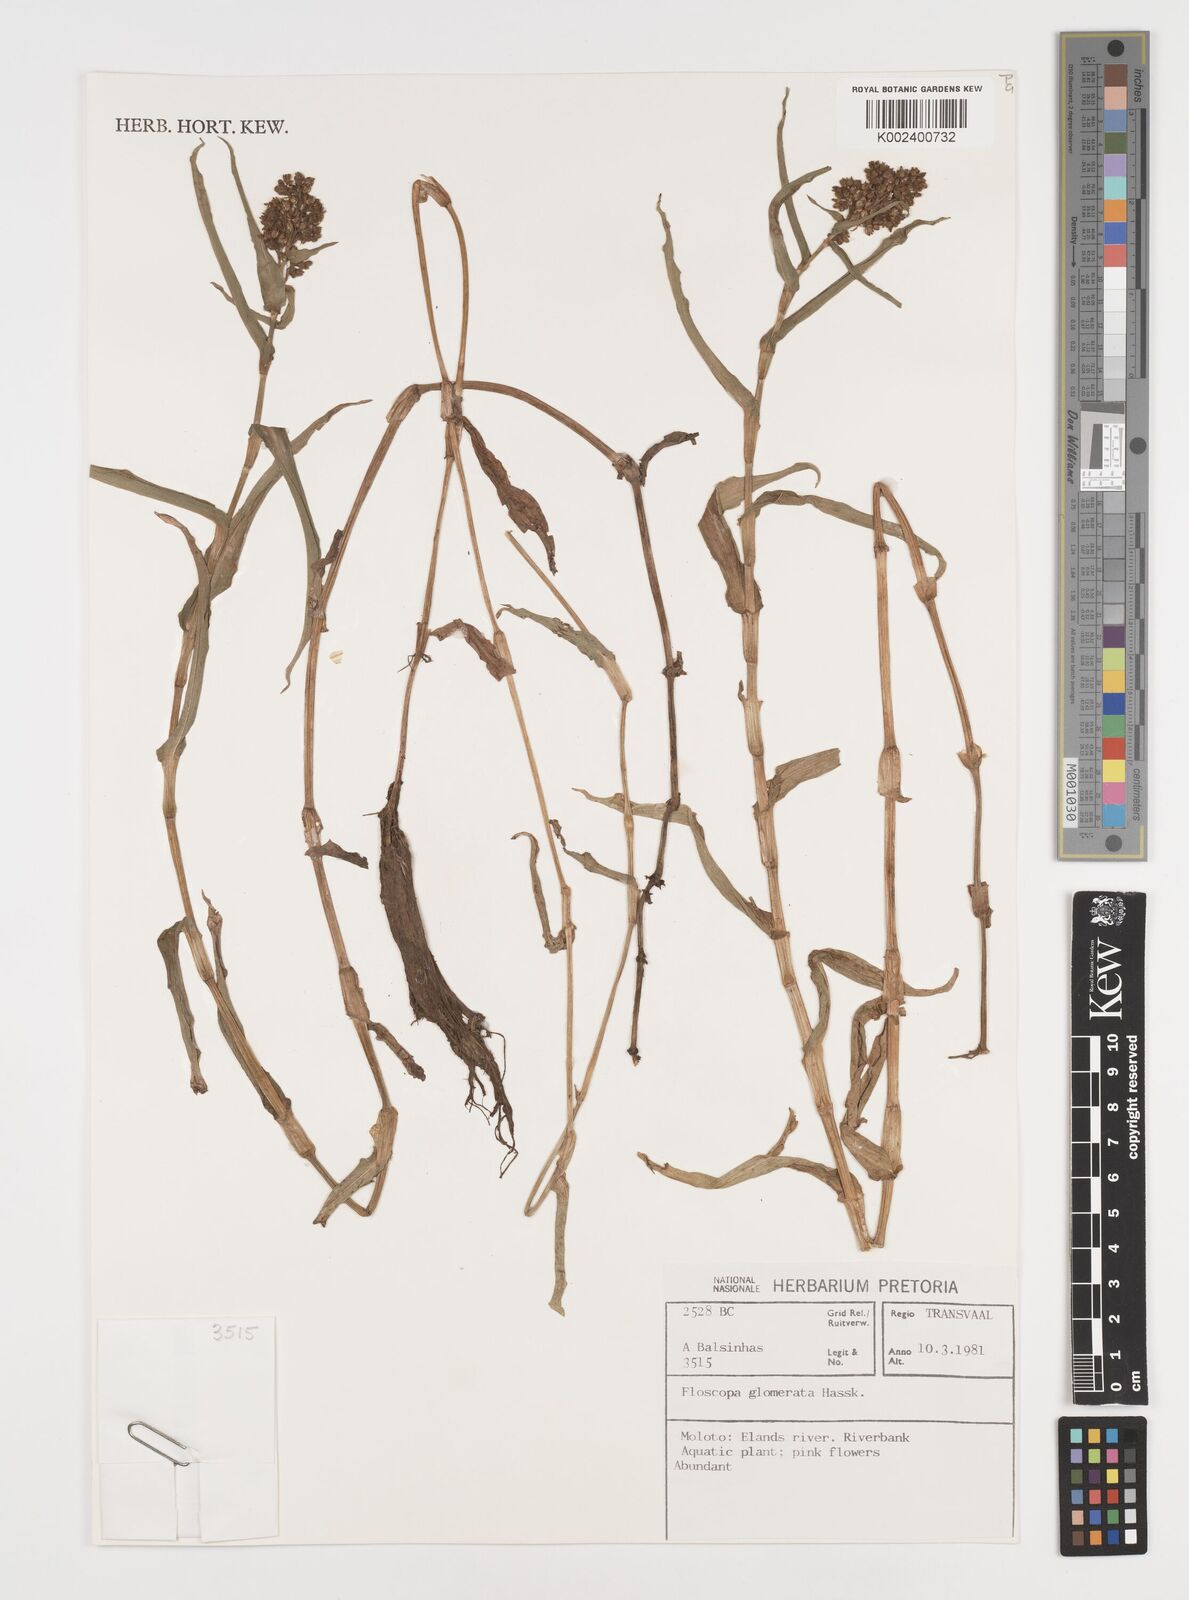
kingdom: Plantae
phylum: Tracheophyta
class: Liliopsida
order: Commelinales
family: Commelinaceae
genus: Floscopa
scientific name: Floscopa glomerata
